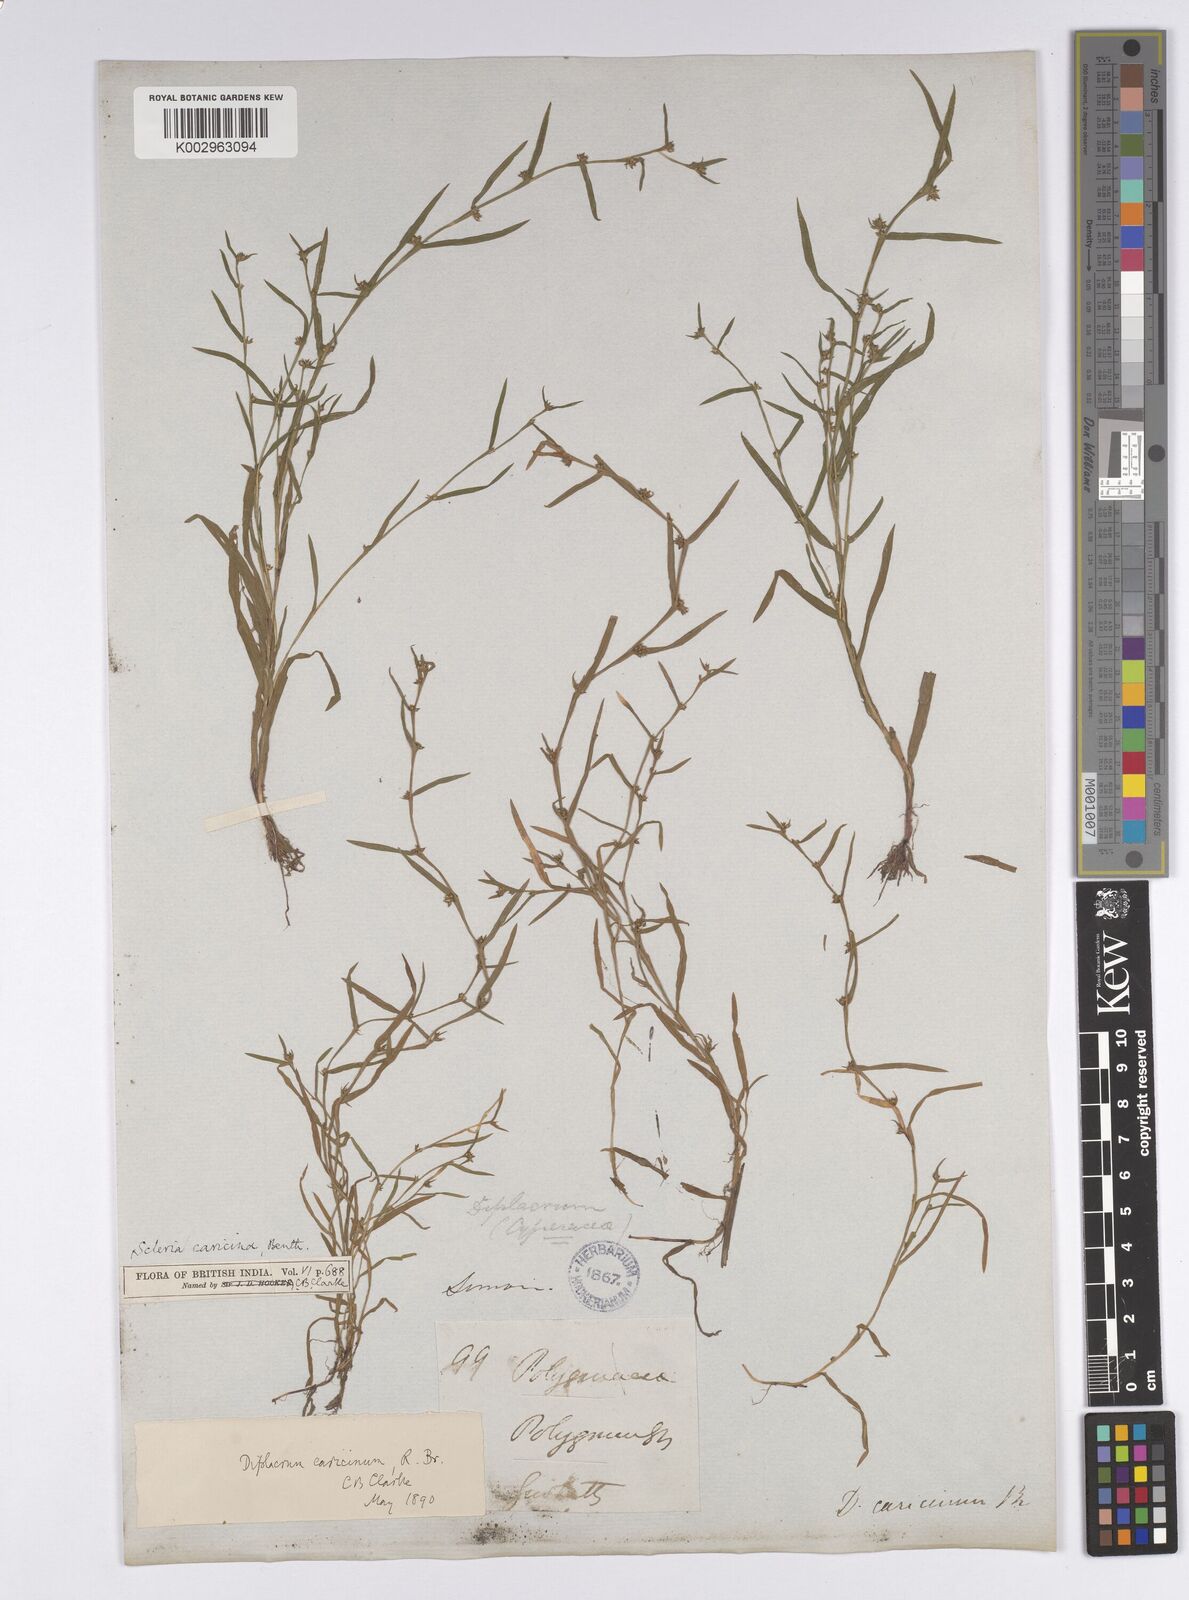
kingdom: Plantae
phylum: Tracheophyta
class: Liliopsida
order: Poales
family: Cyperaceae
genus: Diplacrum
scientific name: Diplacrum caricinum
